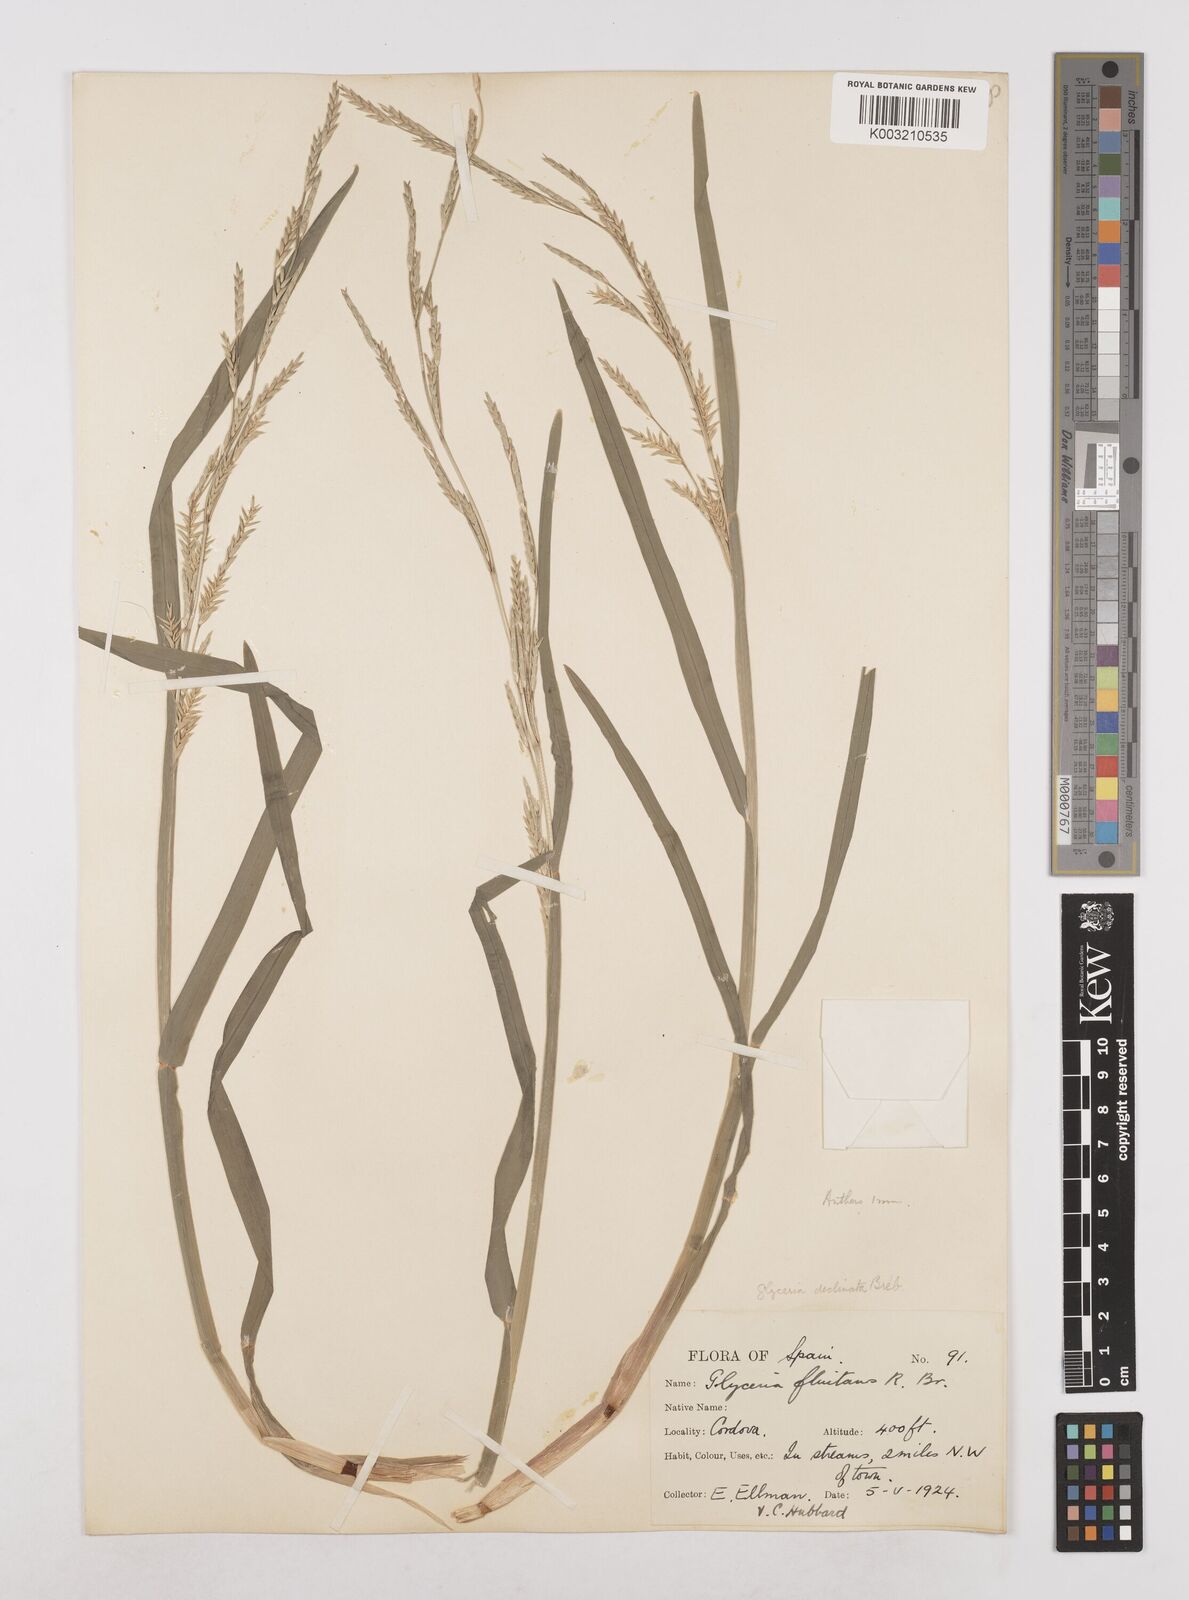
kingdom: Plantae
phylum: Tracheophyta
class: Liliopsida
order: Poales
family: Poaceae
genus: Glyceria
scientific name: Glyceria declinata
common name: Small sweet-grass
